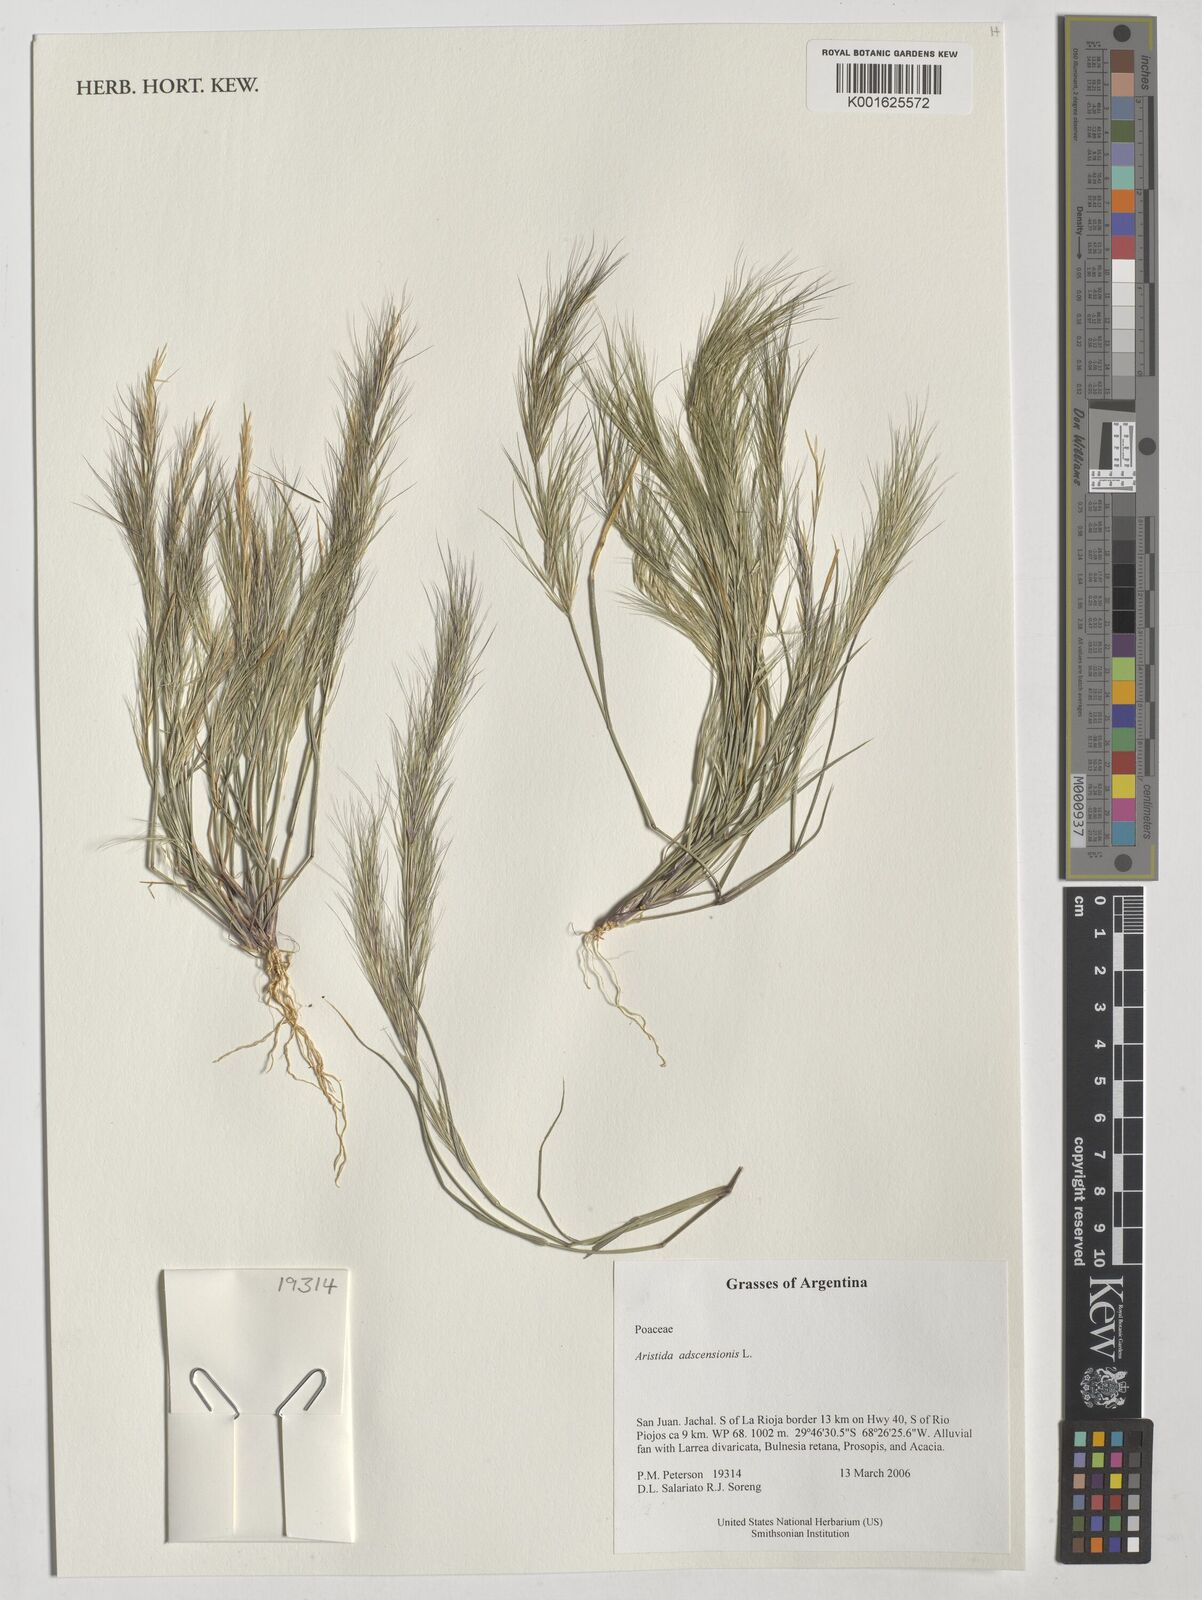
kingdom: Plantae
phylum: Tracheophyta
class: Liliopsida
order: Poales
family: Poaceae
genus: Aristida
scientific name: Aristida adscensionis
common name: Sixweeks threeawn
